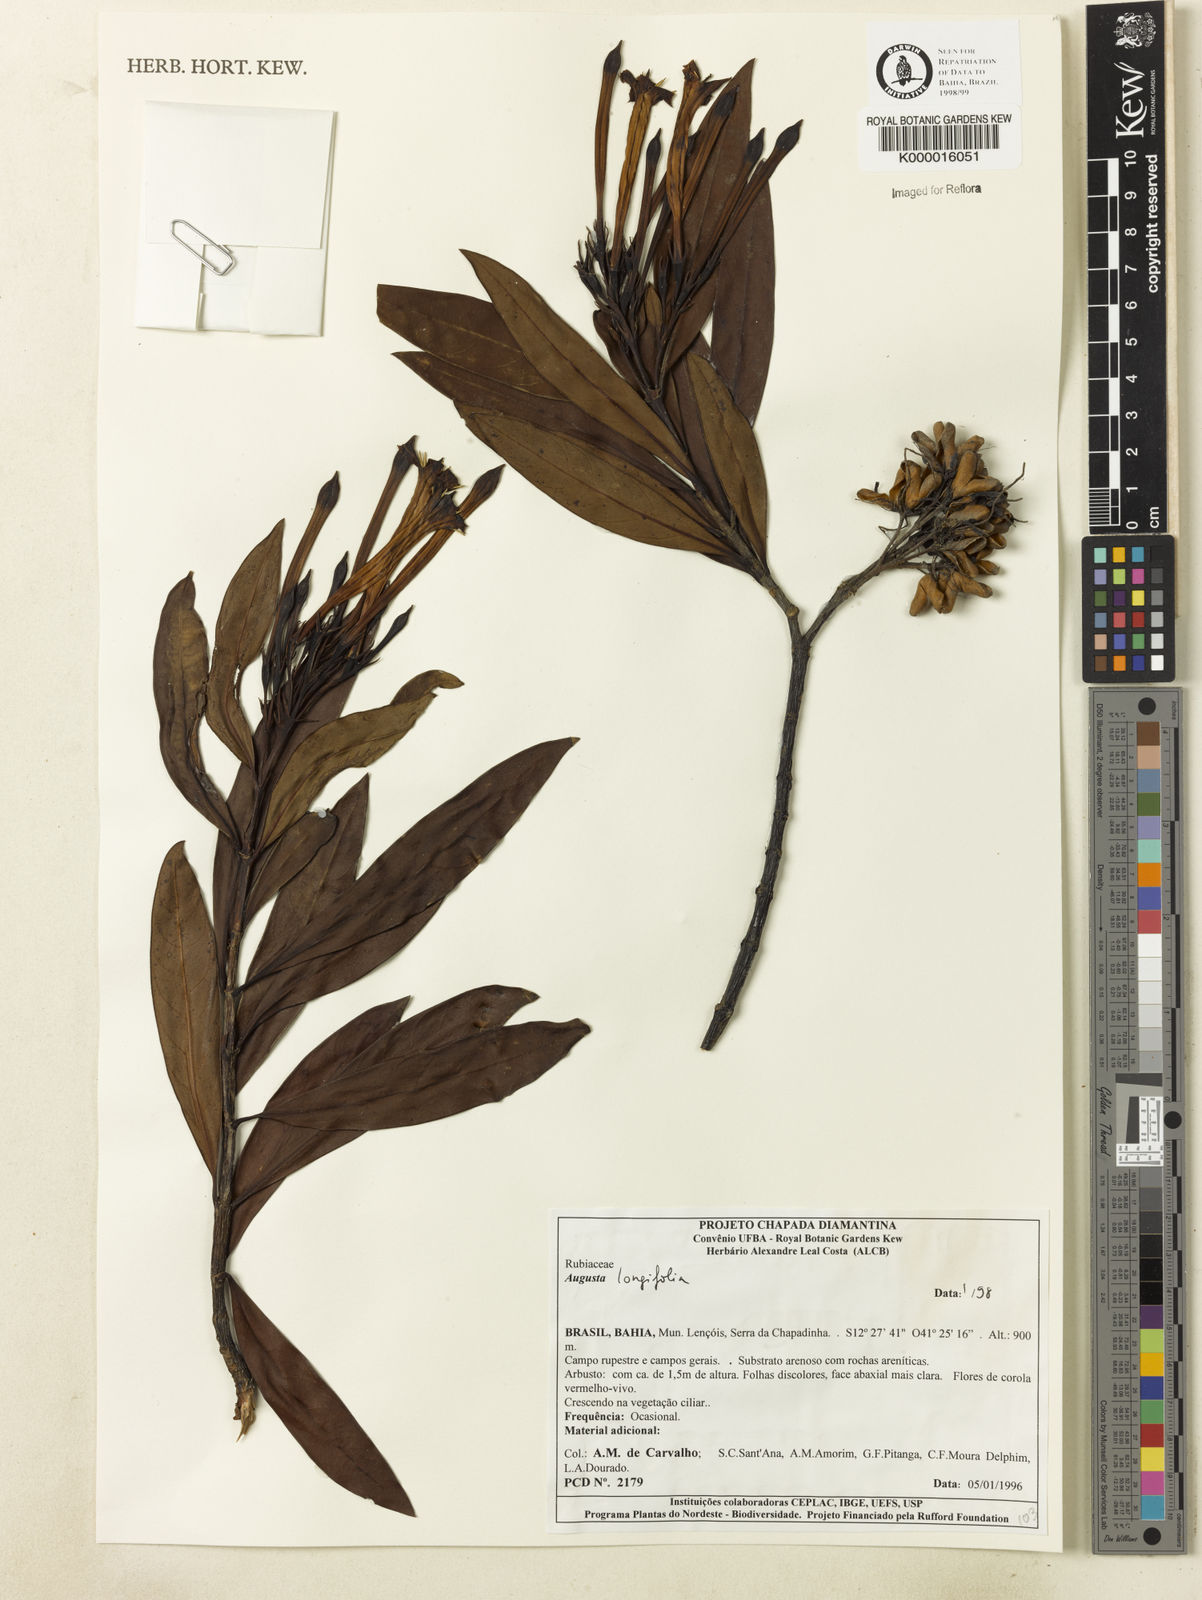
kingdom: Plantae
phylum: Tracheophyta
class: Magnoliopsida
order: Gentianales
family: Rubiaceae
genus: Augusta
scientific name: Augusta longifolia
